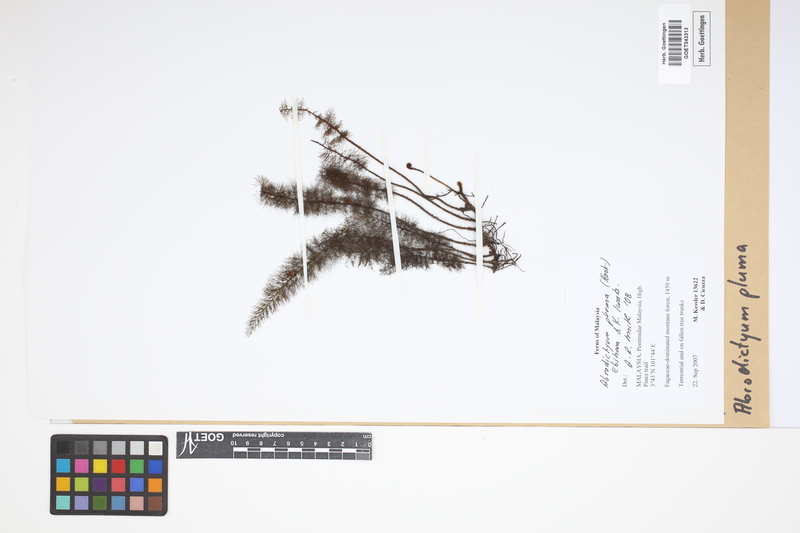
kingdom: Plantae
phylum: Tracheophyta
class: Polypodiopsida
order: Hymenophyllales
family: Hymenophyllaceae
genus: Abrodictyum
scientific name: Abrodictyum pluma
